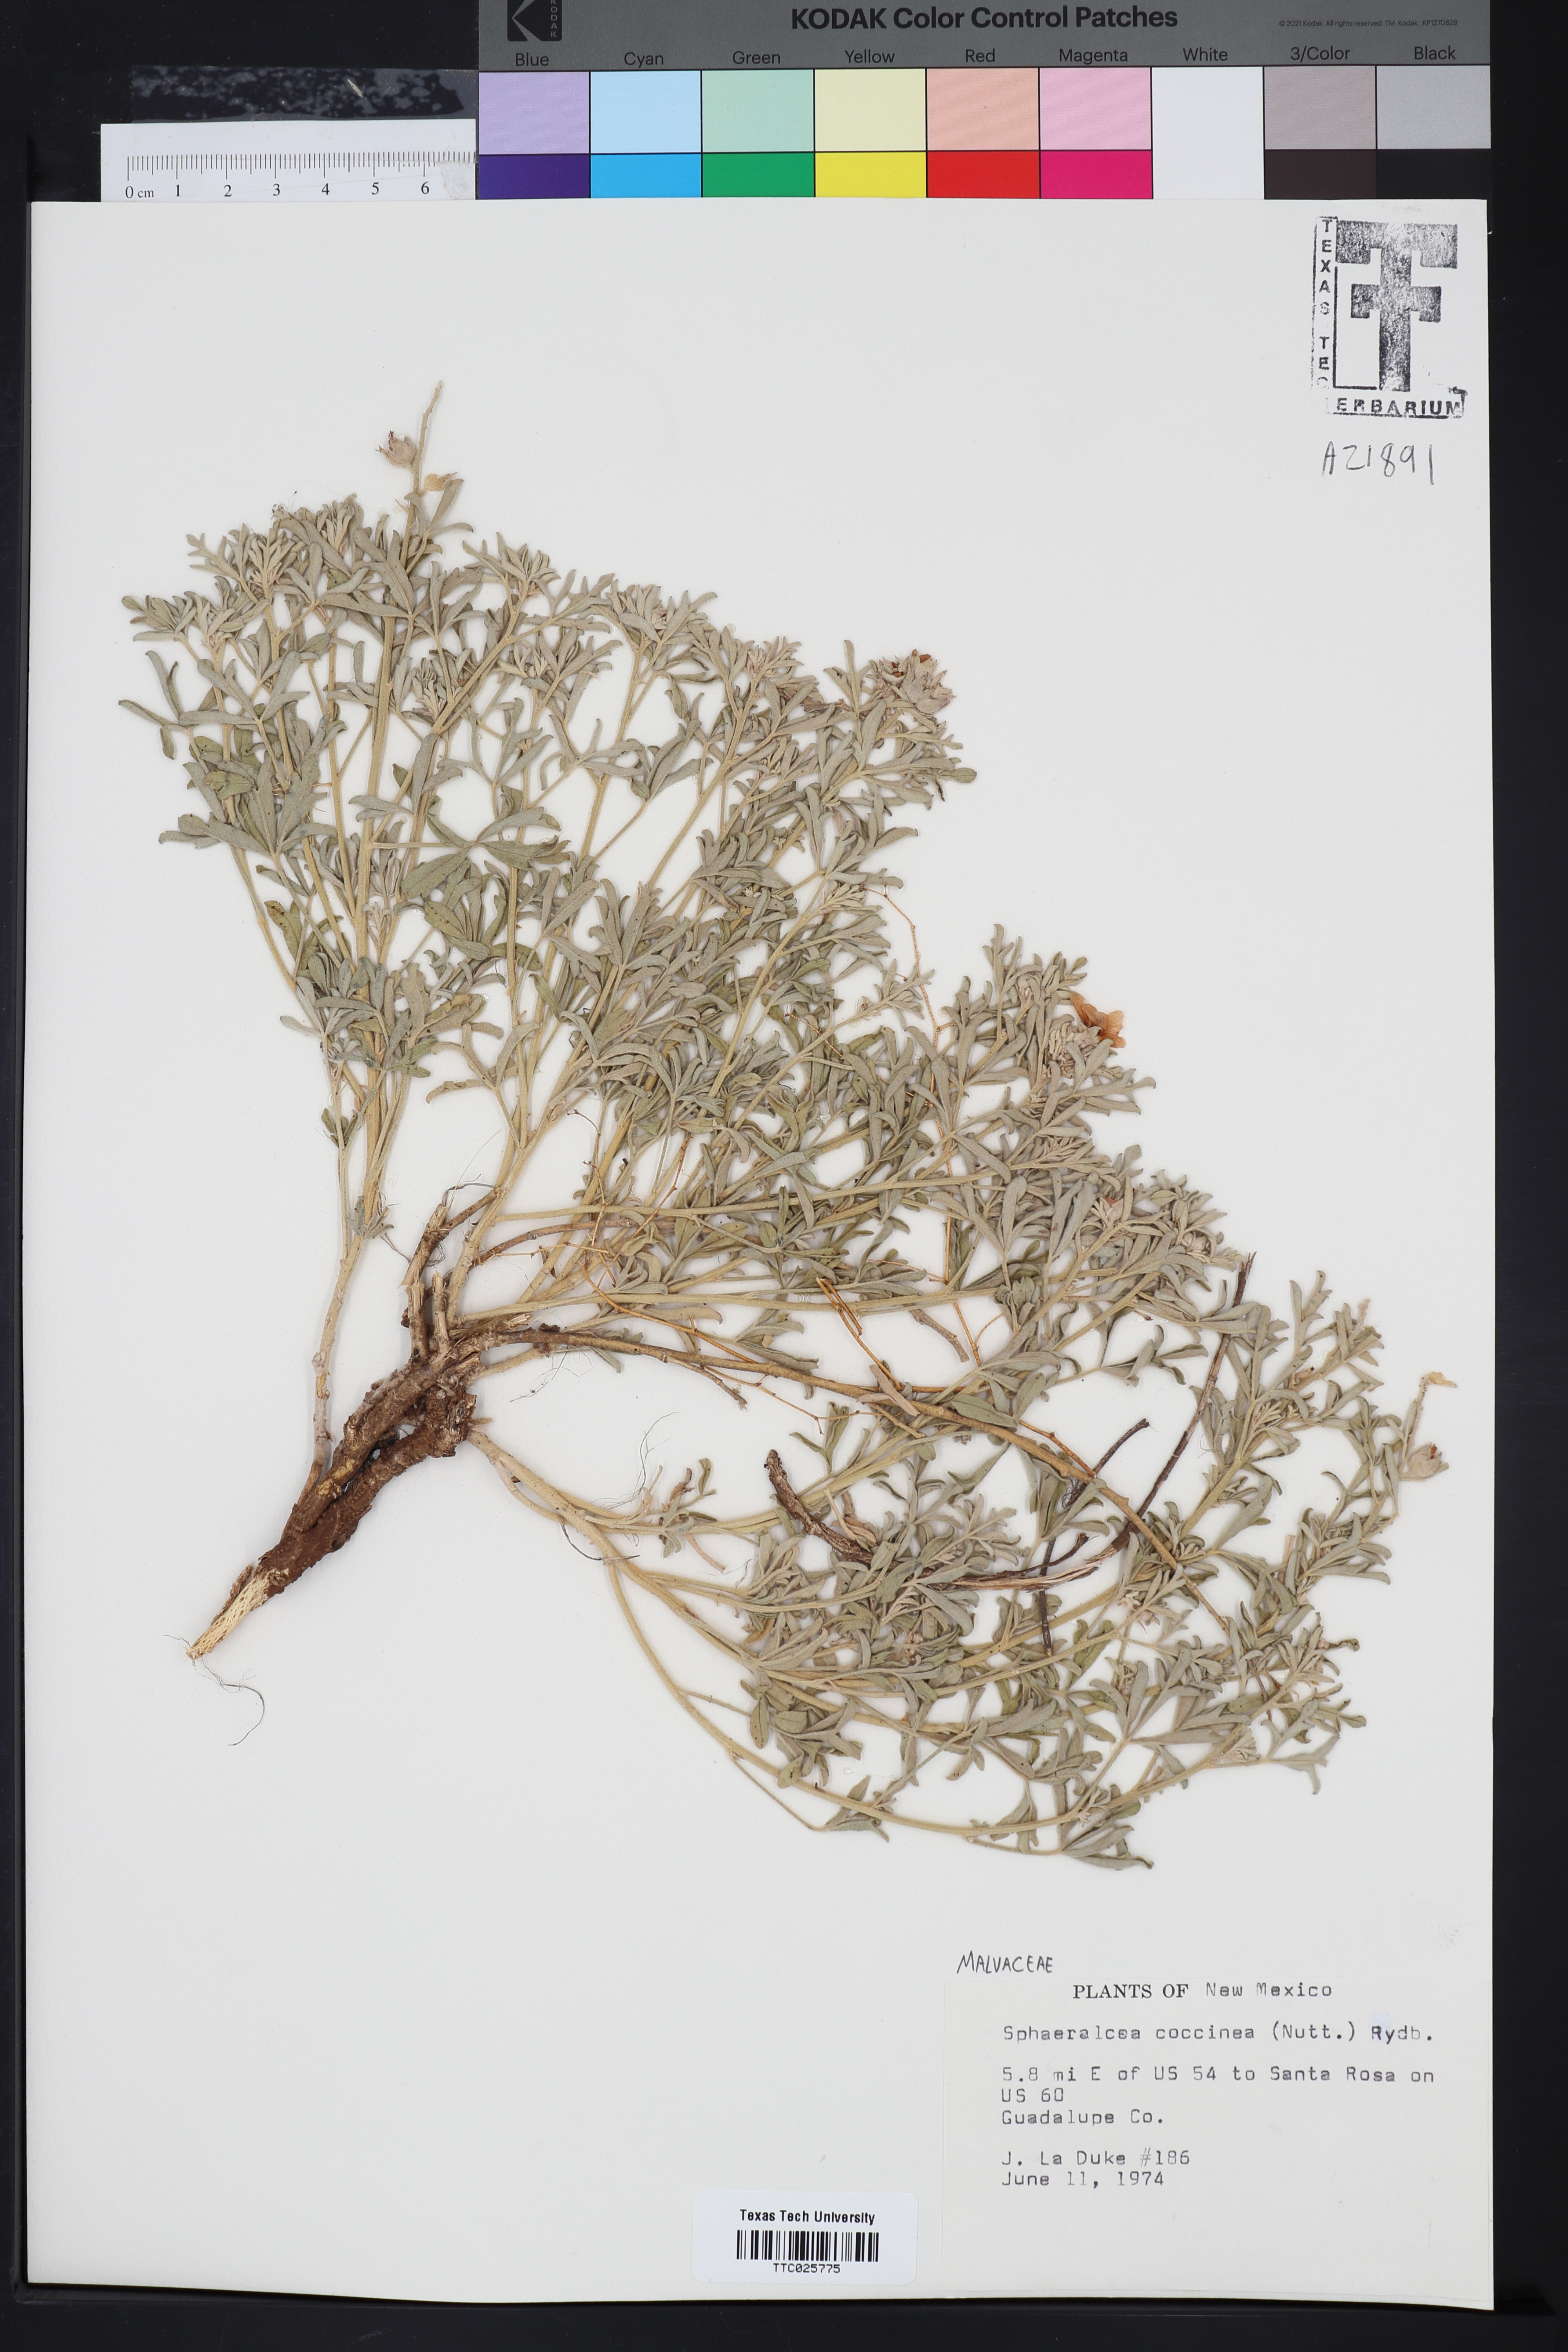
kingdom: Plantae
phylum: Tracheophyta
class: Magnoliopsida
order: Malvales
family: Malvaceae
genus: Sphaeralcea
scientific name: Sphaeralcea coccinea
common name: Moss-rose
